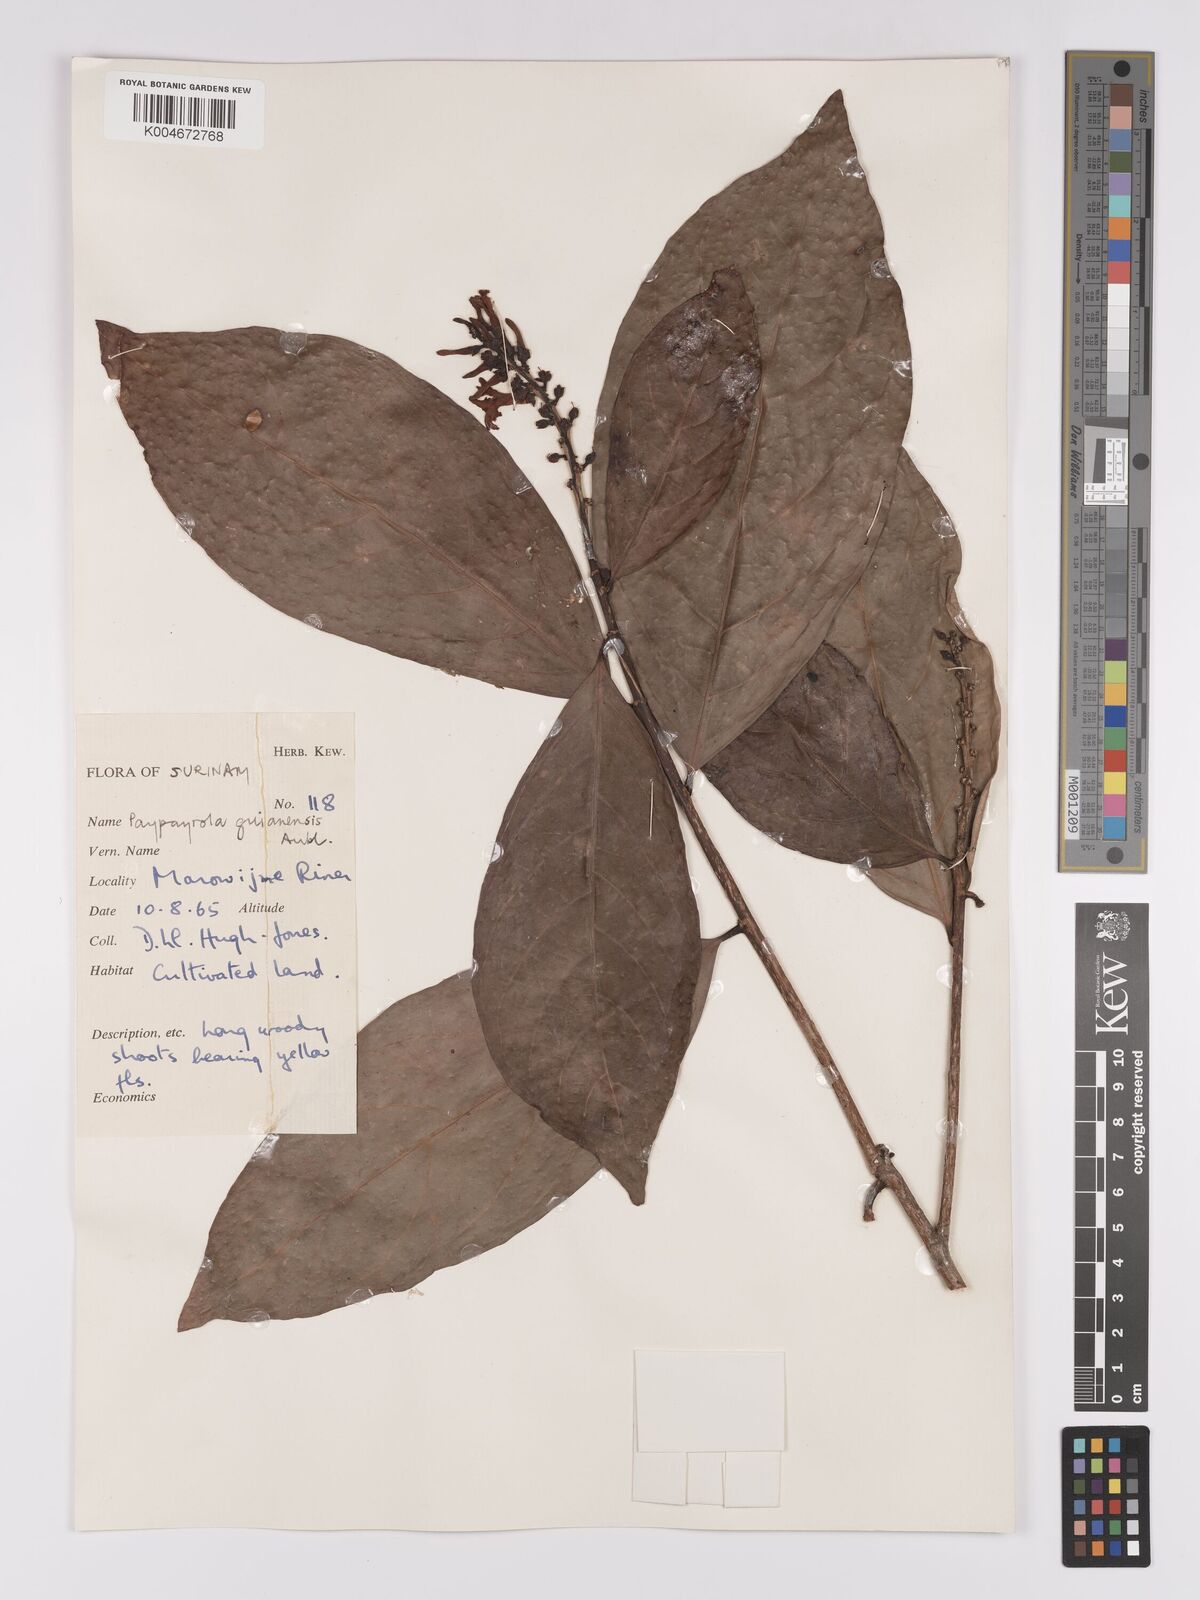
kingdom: Plantae
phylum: Tracheophyta
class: Magnoliopsida
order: Malpighiales
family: Violaceae
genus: Paypayrola
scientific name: Paypayrola guianensis
